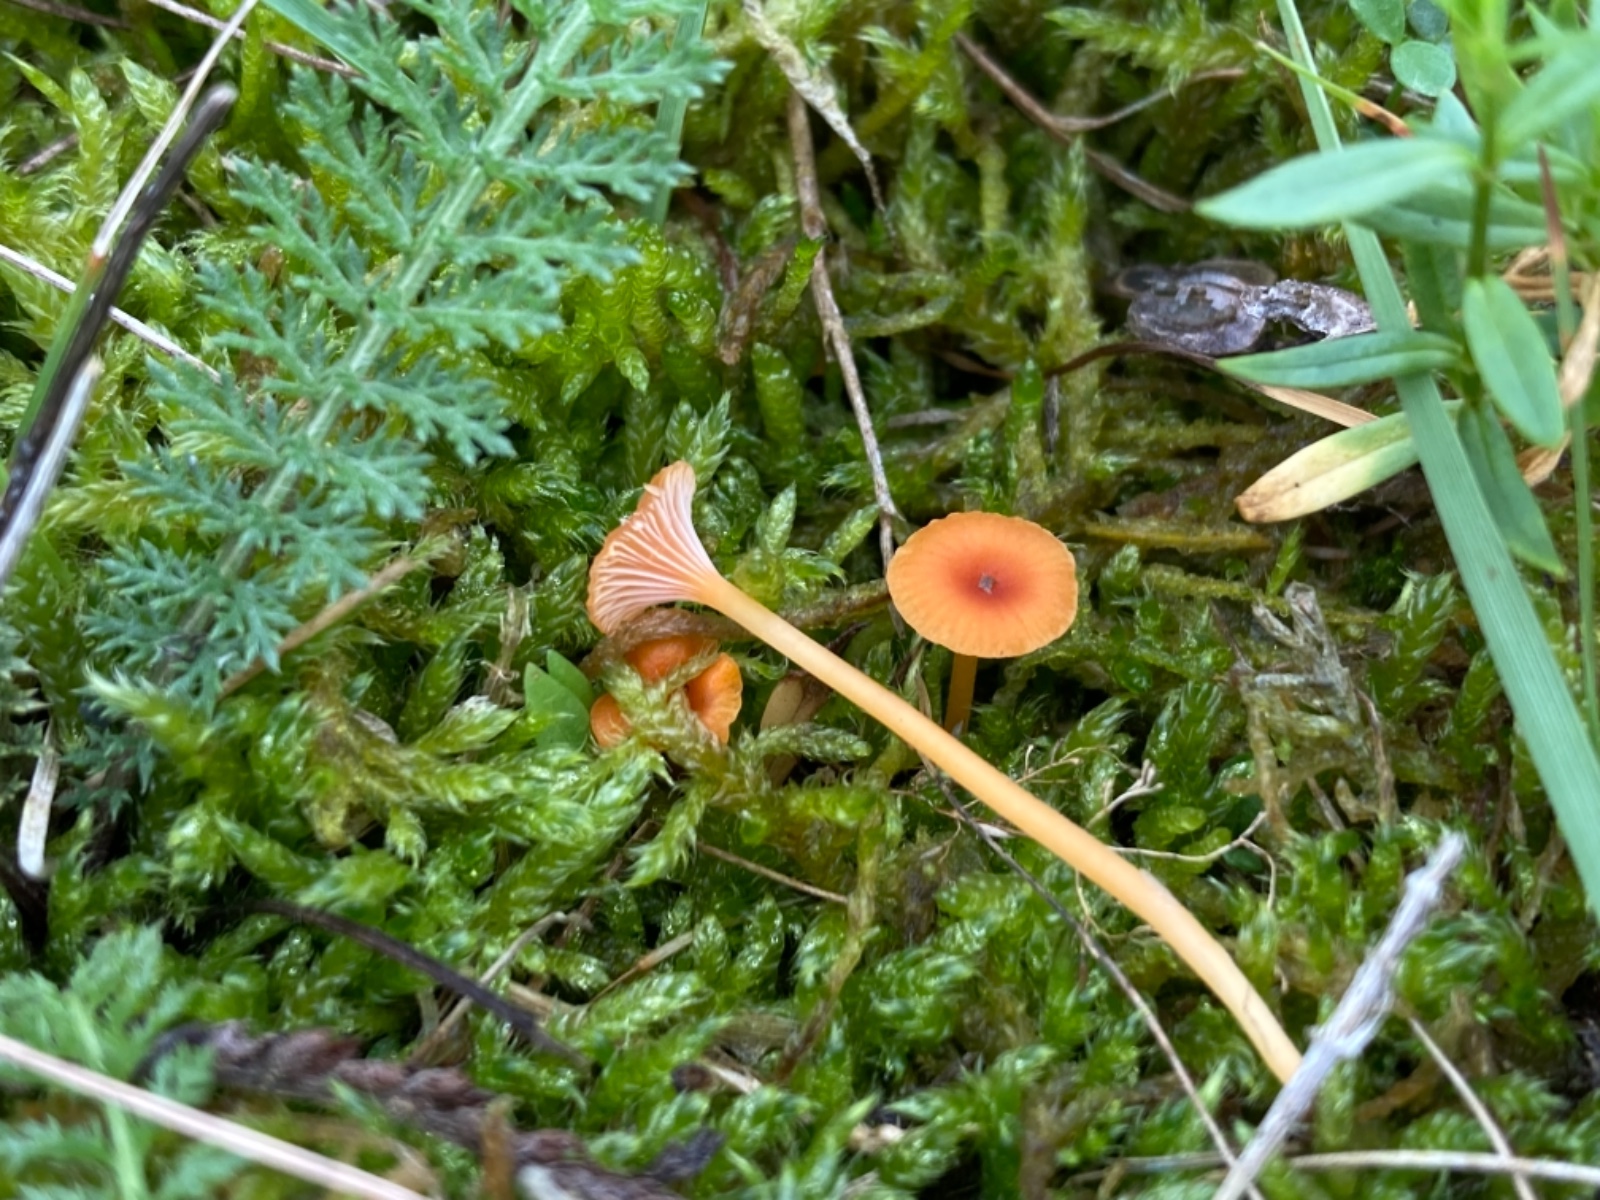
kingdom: Fungi
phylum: Basidiomycota
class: Agaricomycetes
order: Hymenochaetales
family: Rickenellaceae
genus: Rickenella
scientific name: Rickenella fibula
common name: orange mosnavlehat
